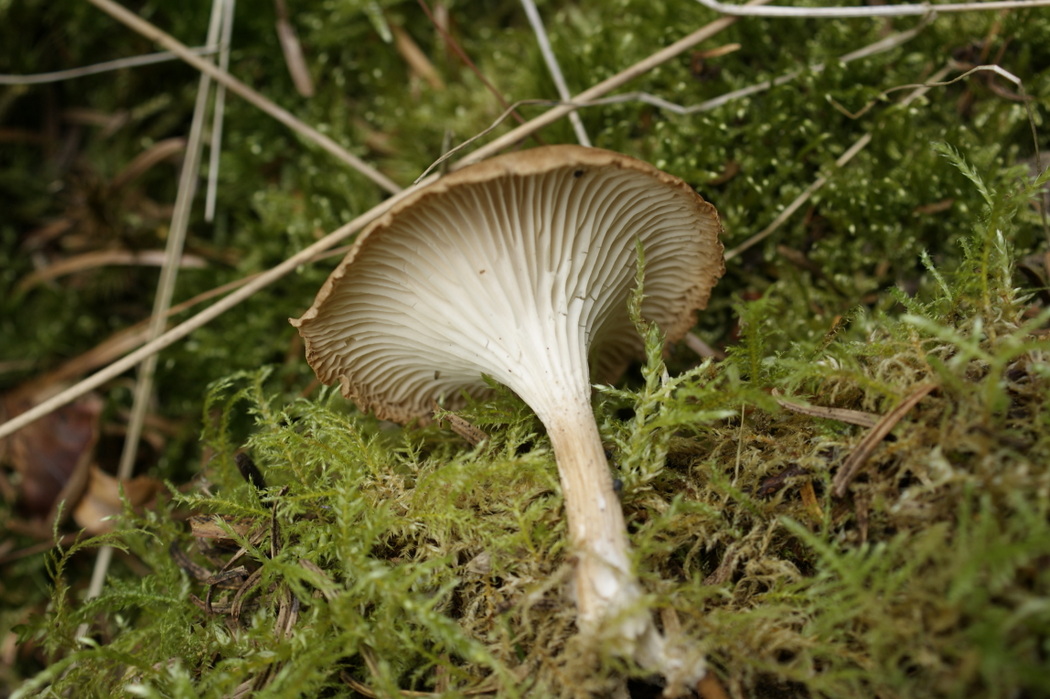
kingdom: Fungi
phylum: Basidiomycota
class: Agaricomycetes
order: Agaricales
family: Tricholomataceae
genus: Infundibulicybe
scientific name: Infundibulicybe squamulosa
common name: småskællet tragthat
